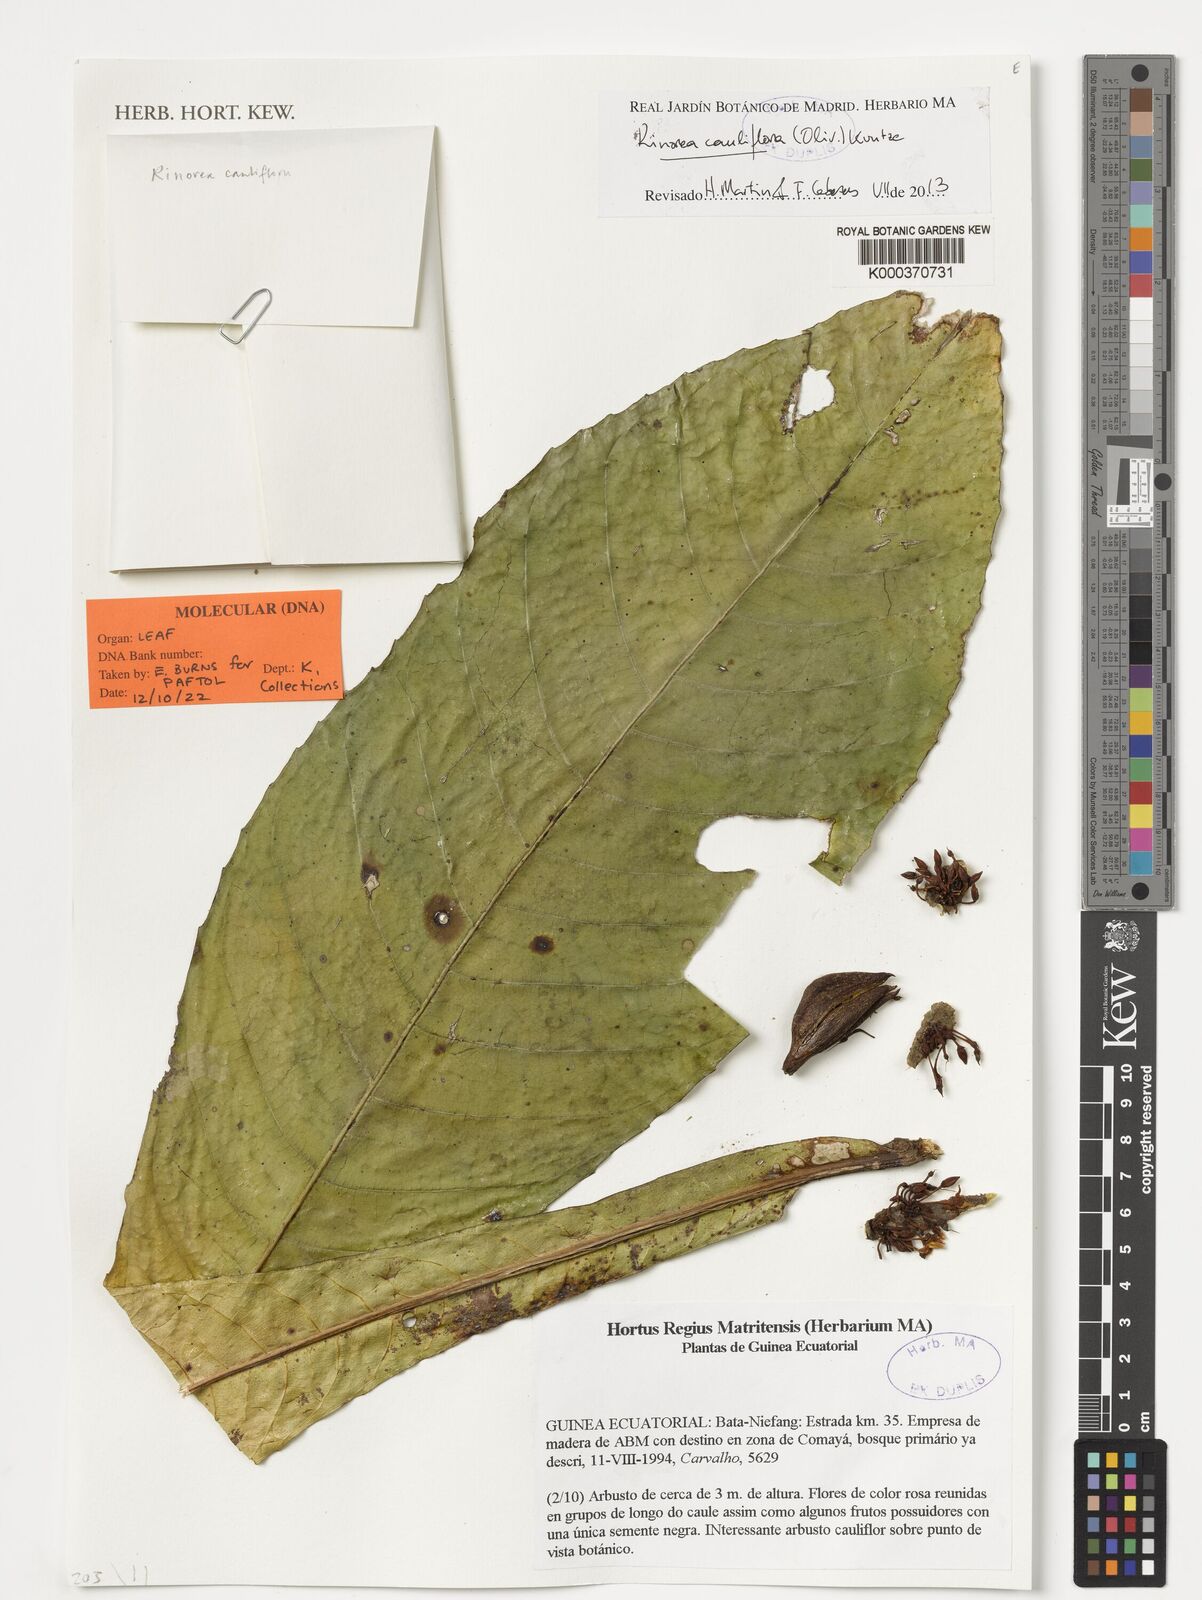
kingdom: Plantae
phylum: Tracheophyta
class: Magnoliopsida
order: Malpighiales
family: Violaceae
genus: Allexis
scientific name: Allexis cauliflora
